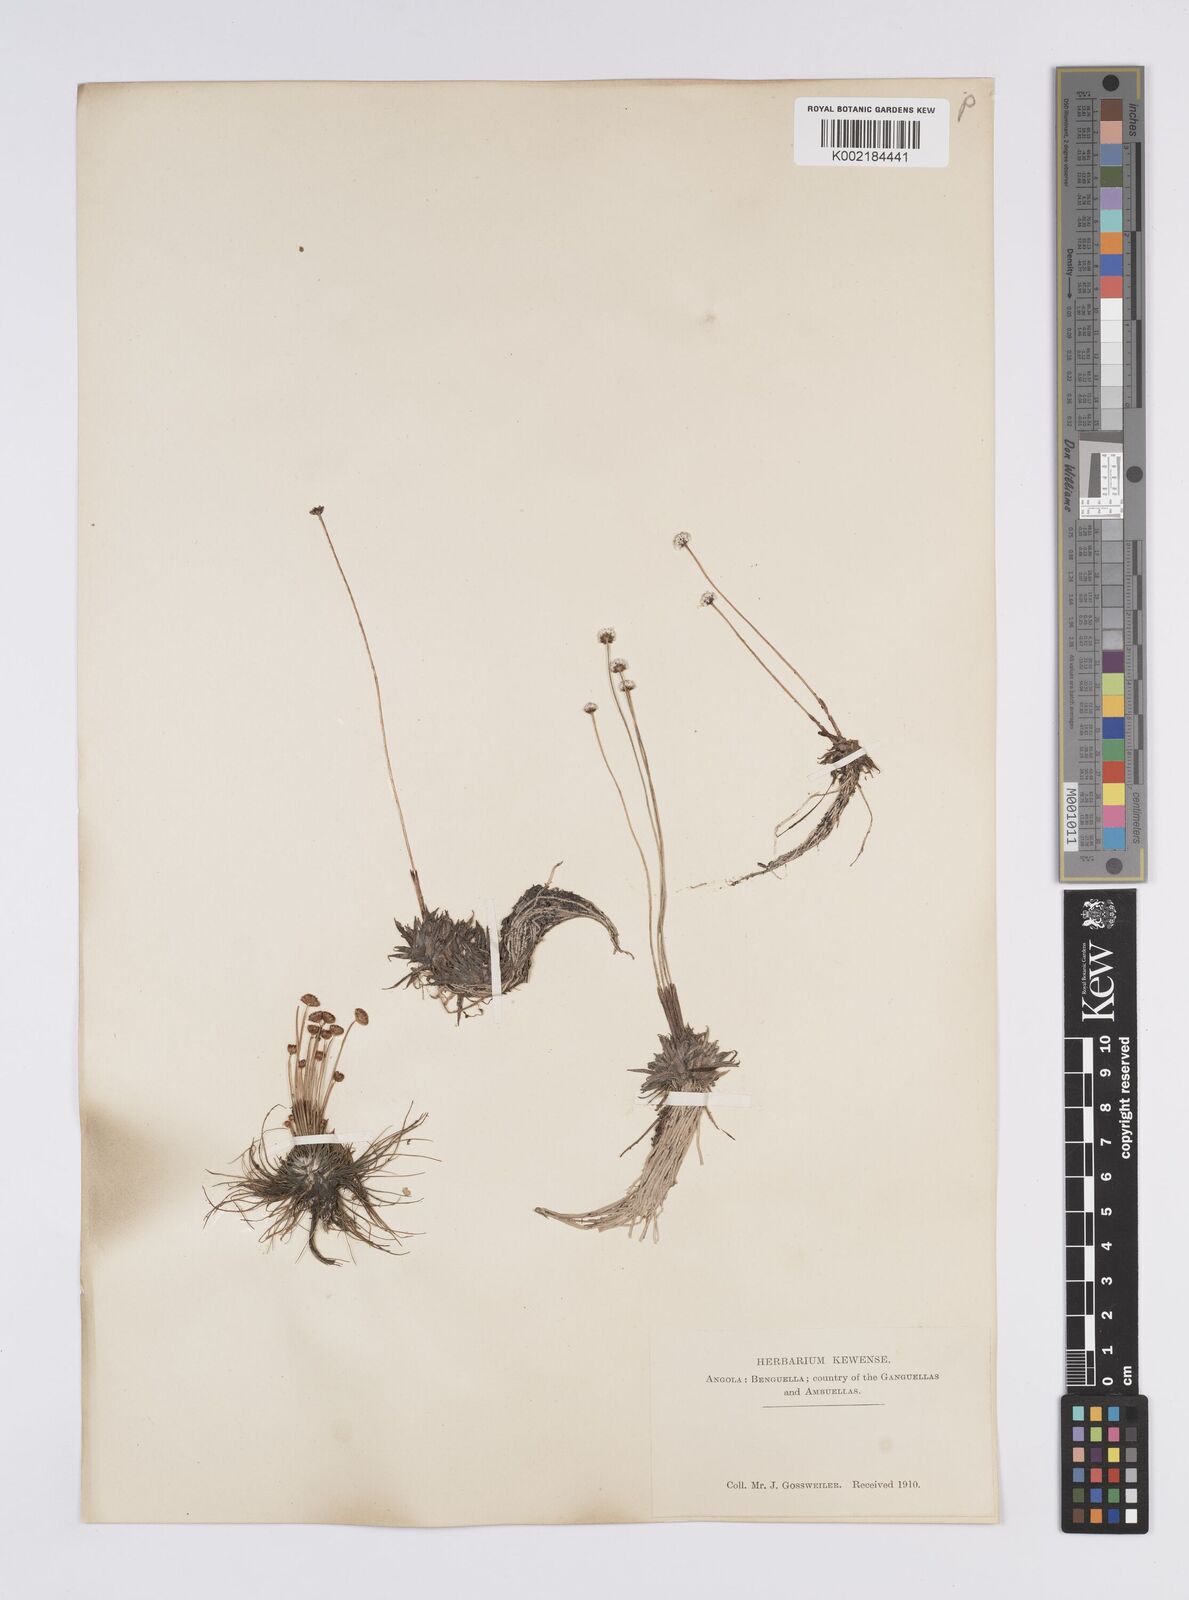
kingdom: Plantae
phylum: Tracheophyta
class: Liliopsida
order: Poales
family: Eriocaulaceae
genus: Eriocaulon
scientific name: Eriocaulon
